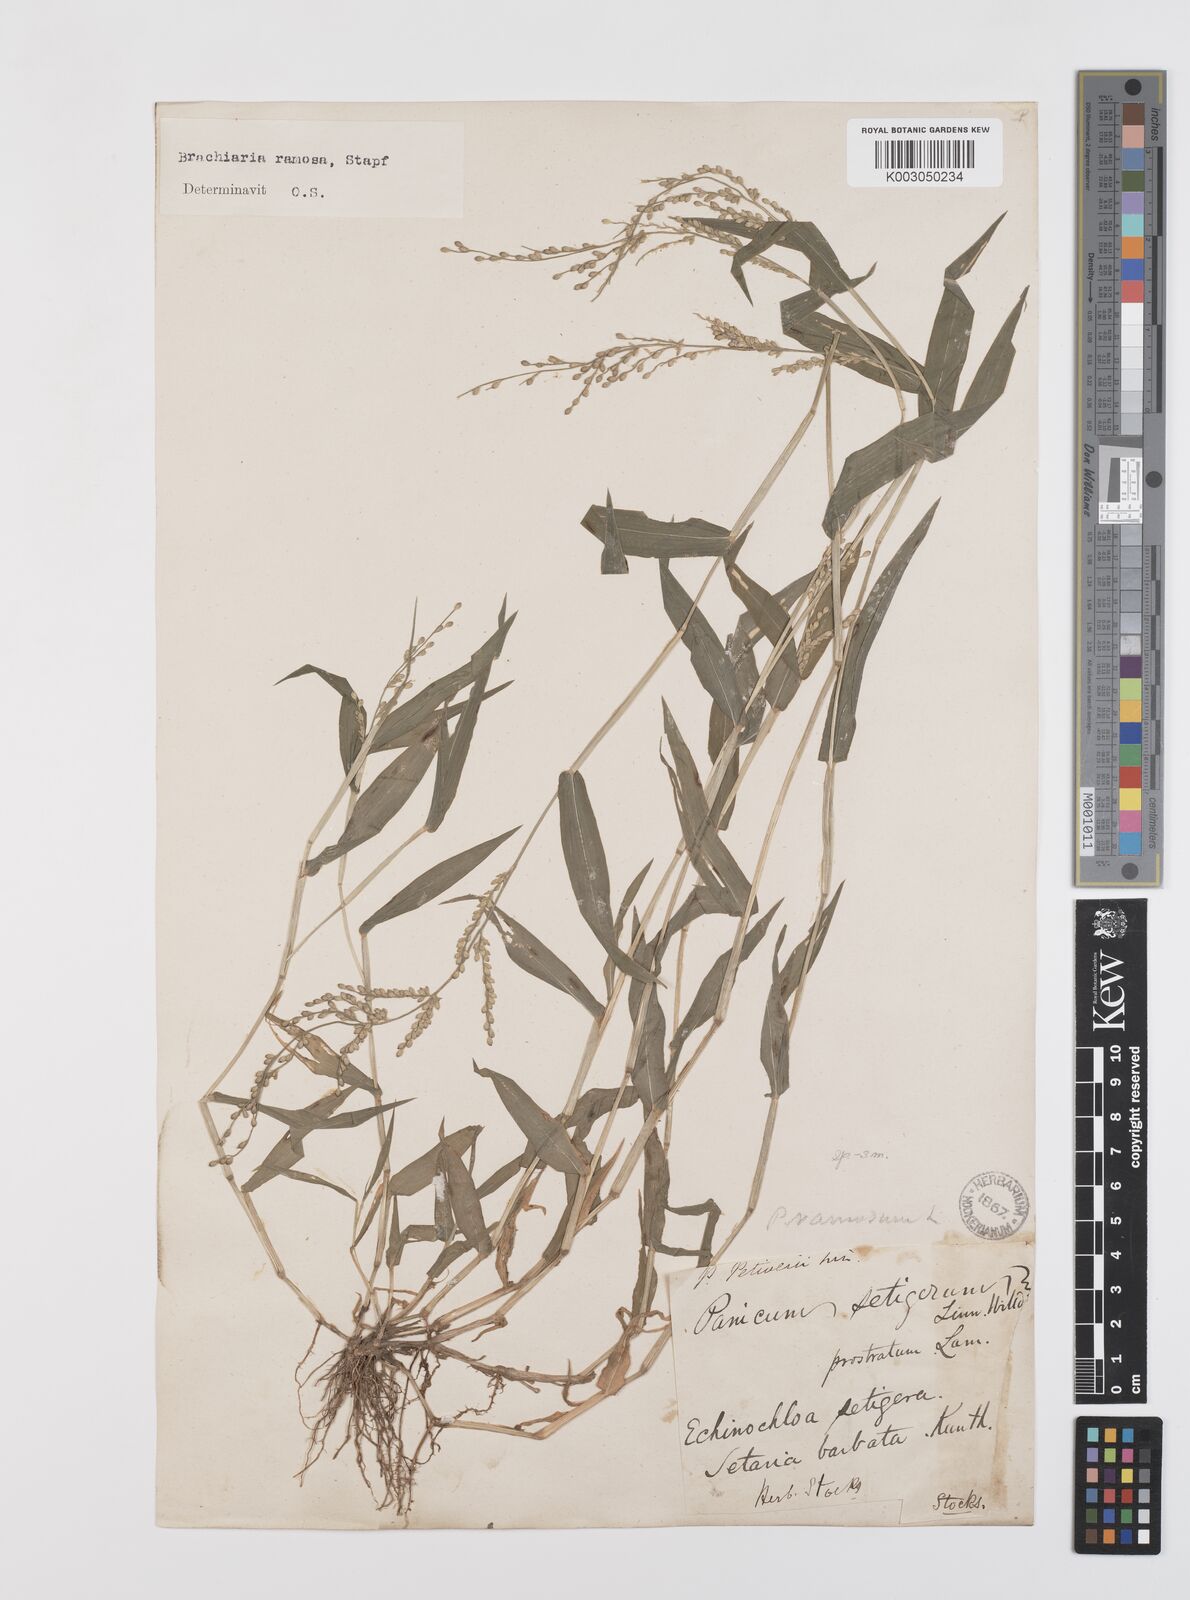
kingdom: Plantae
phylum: Tracheophyta
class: Liliopsida
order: Poales
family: Poaceae
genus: Urochloa
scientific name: Urochloa ramosa
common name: Browntop millet
